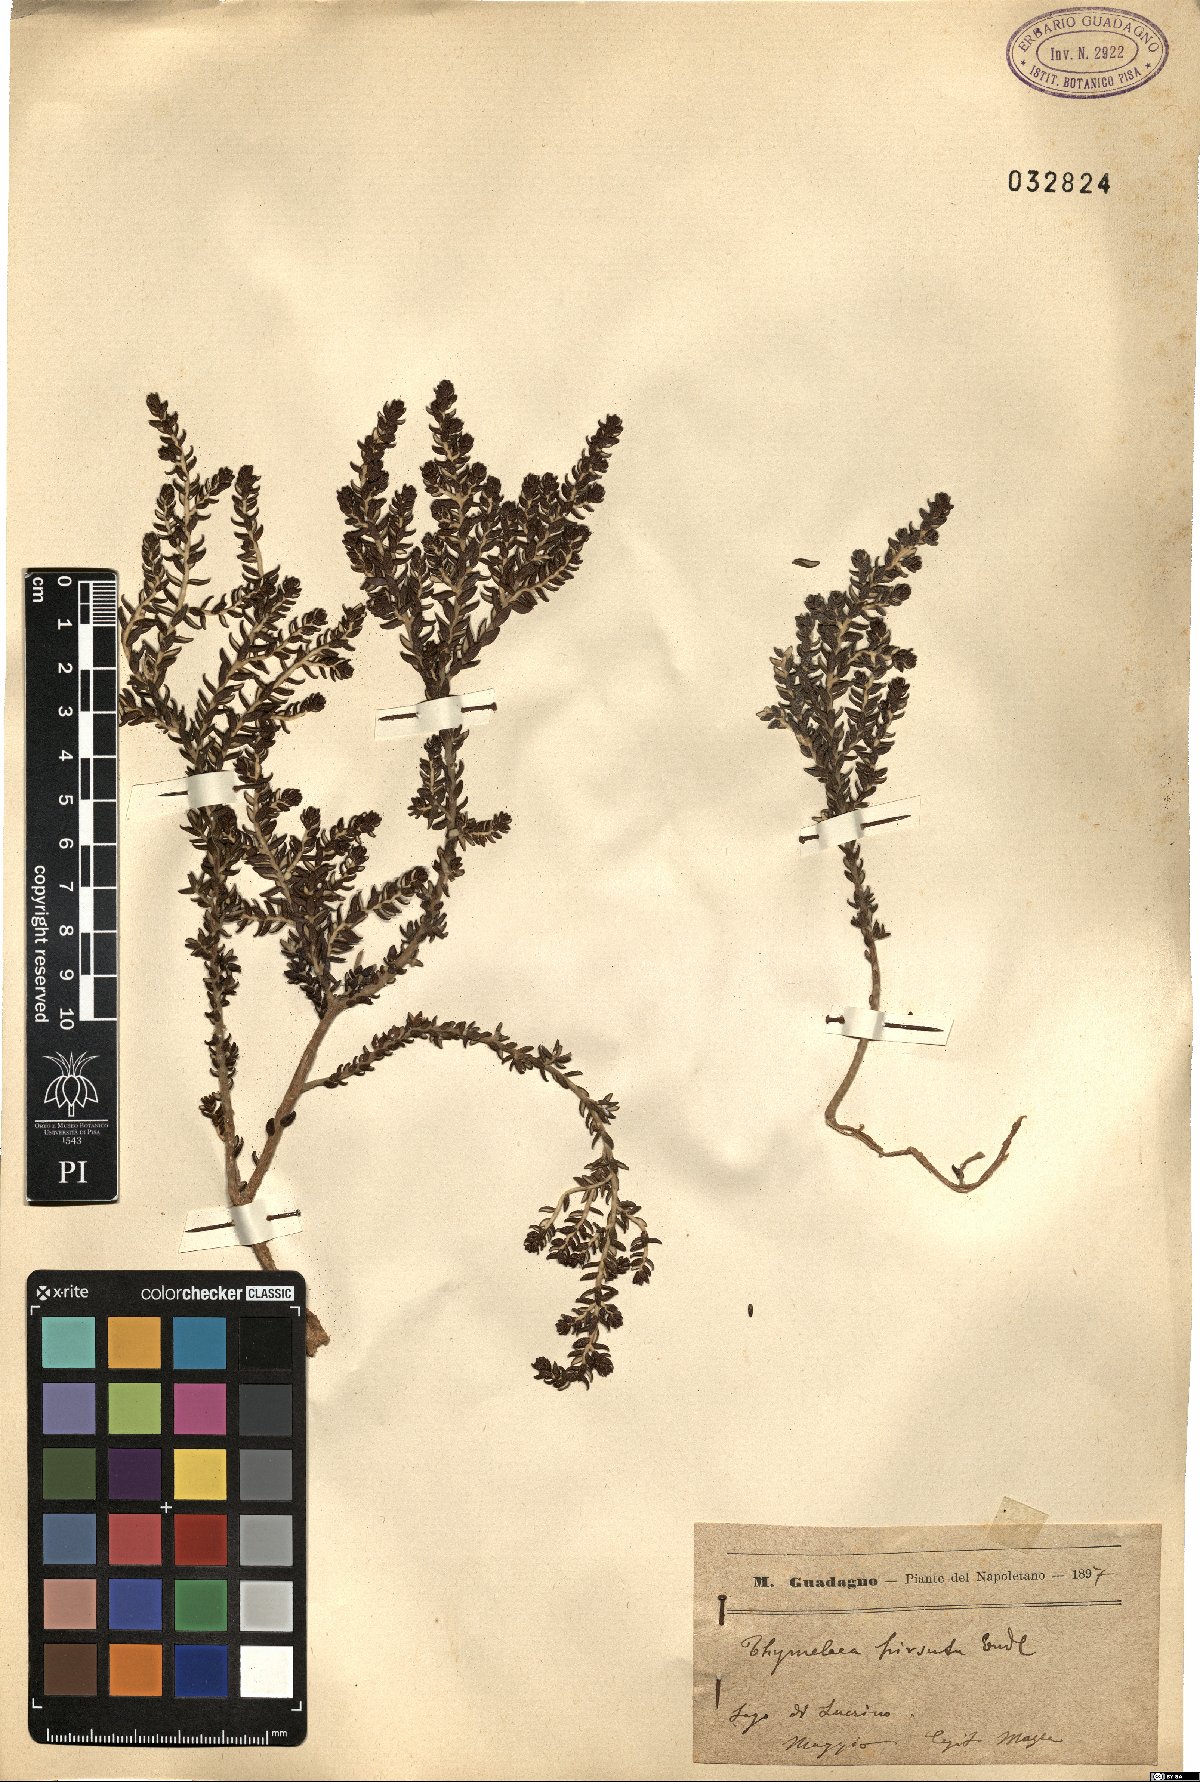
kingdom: Plantae
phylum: Tracheophyta
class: Magnoliopsida
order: Malvales
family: Thymelaeaceae
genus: Thymelaea
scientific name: Thymelaea hirsuta
